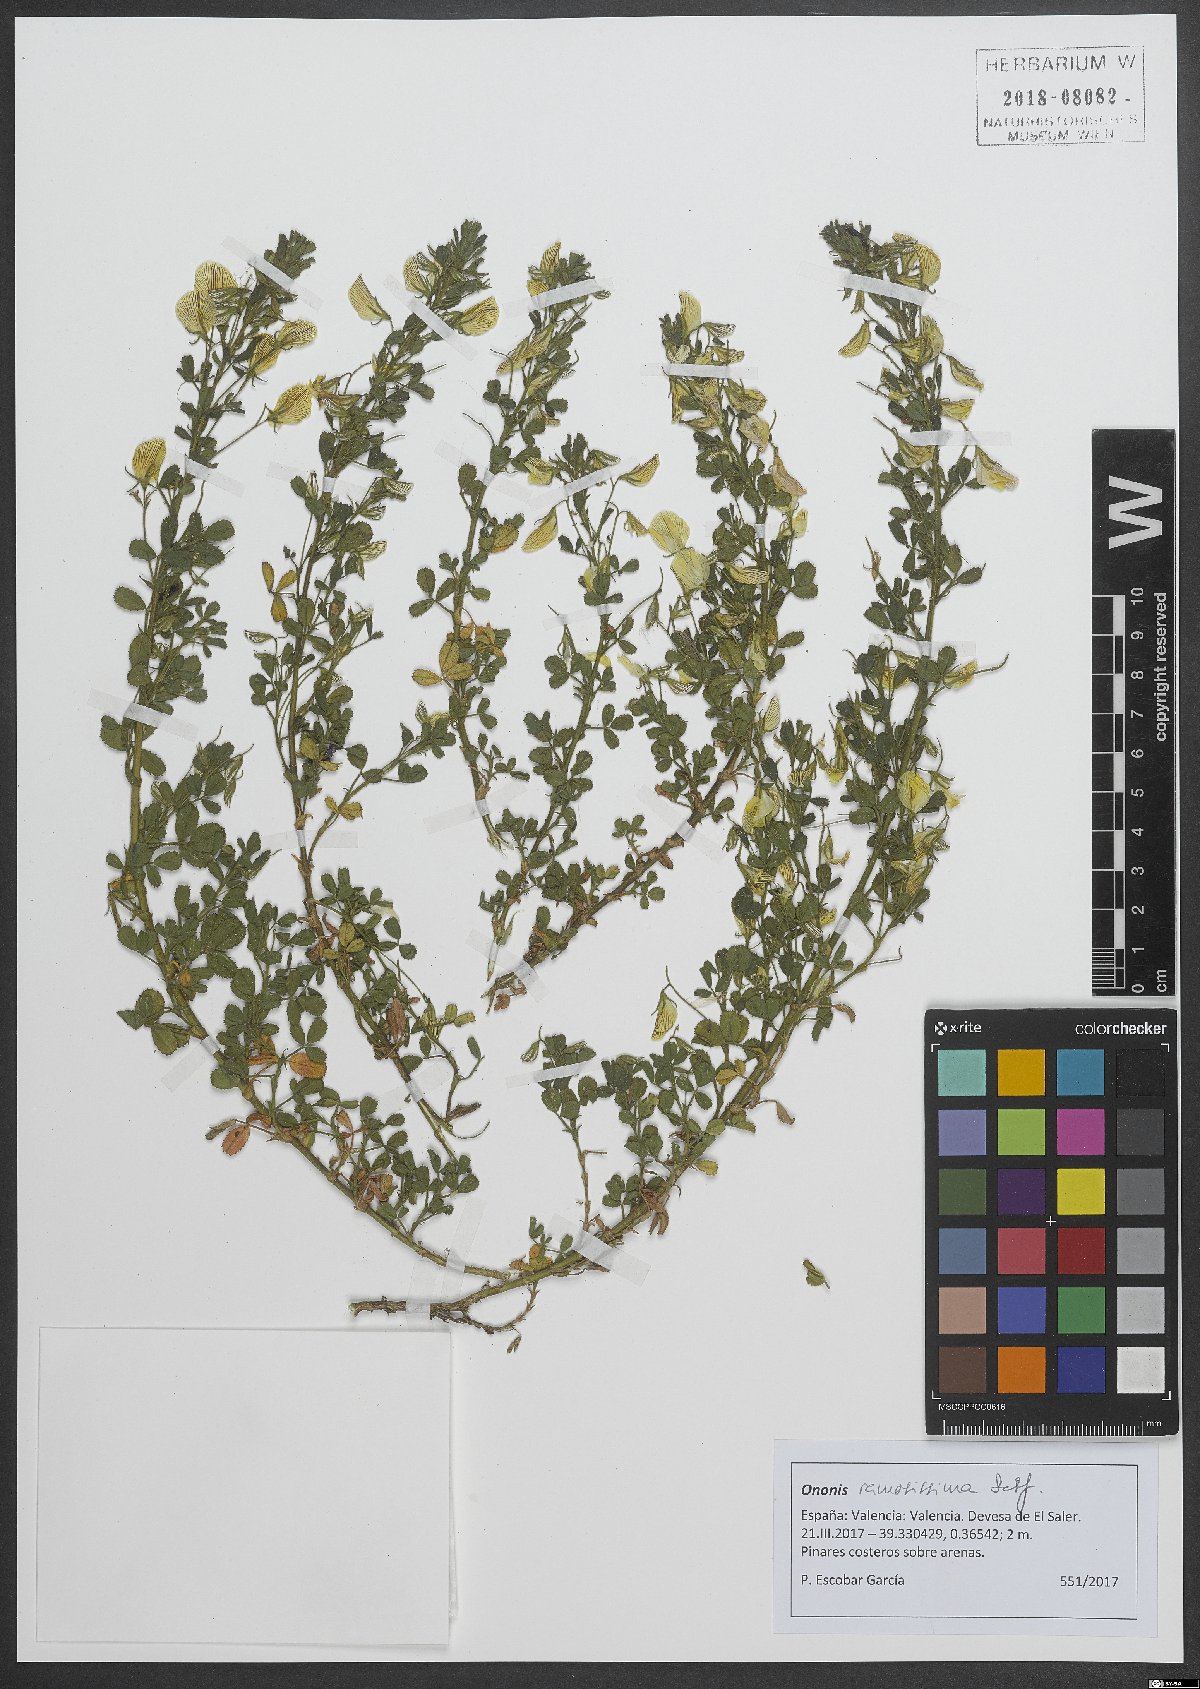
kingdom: Plantae
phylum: Tracheophyta
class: Magnoliopsida
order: Fabales
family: Fabaceae
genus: Ononis
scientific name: Ononis ramosissima
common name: Bush restharrow
